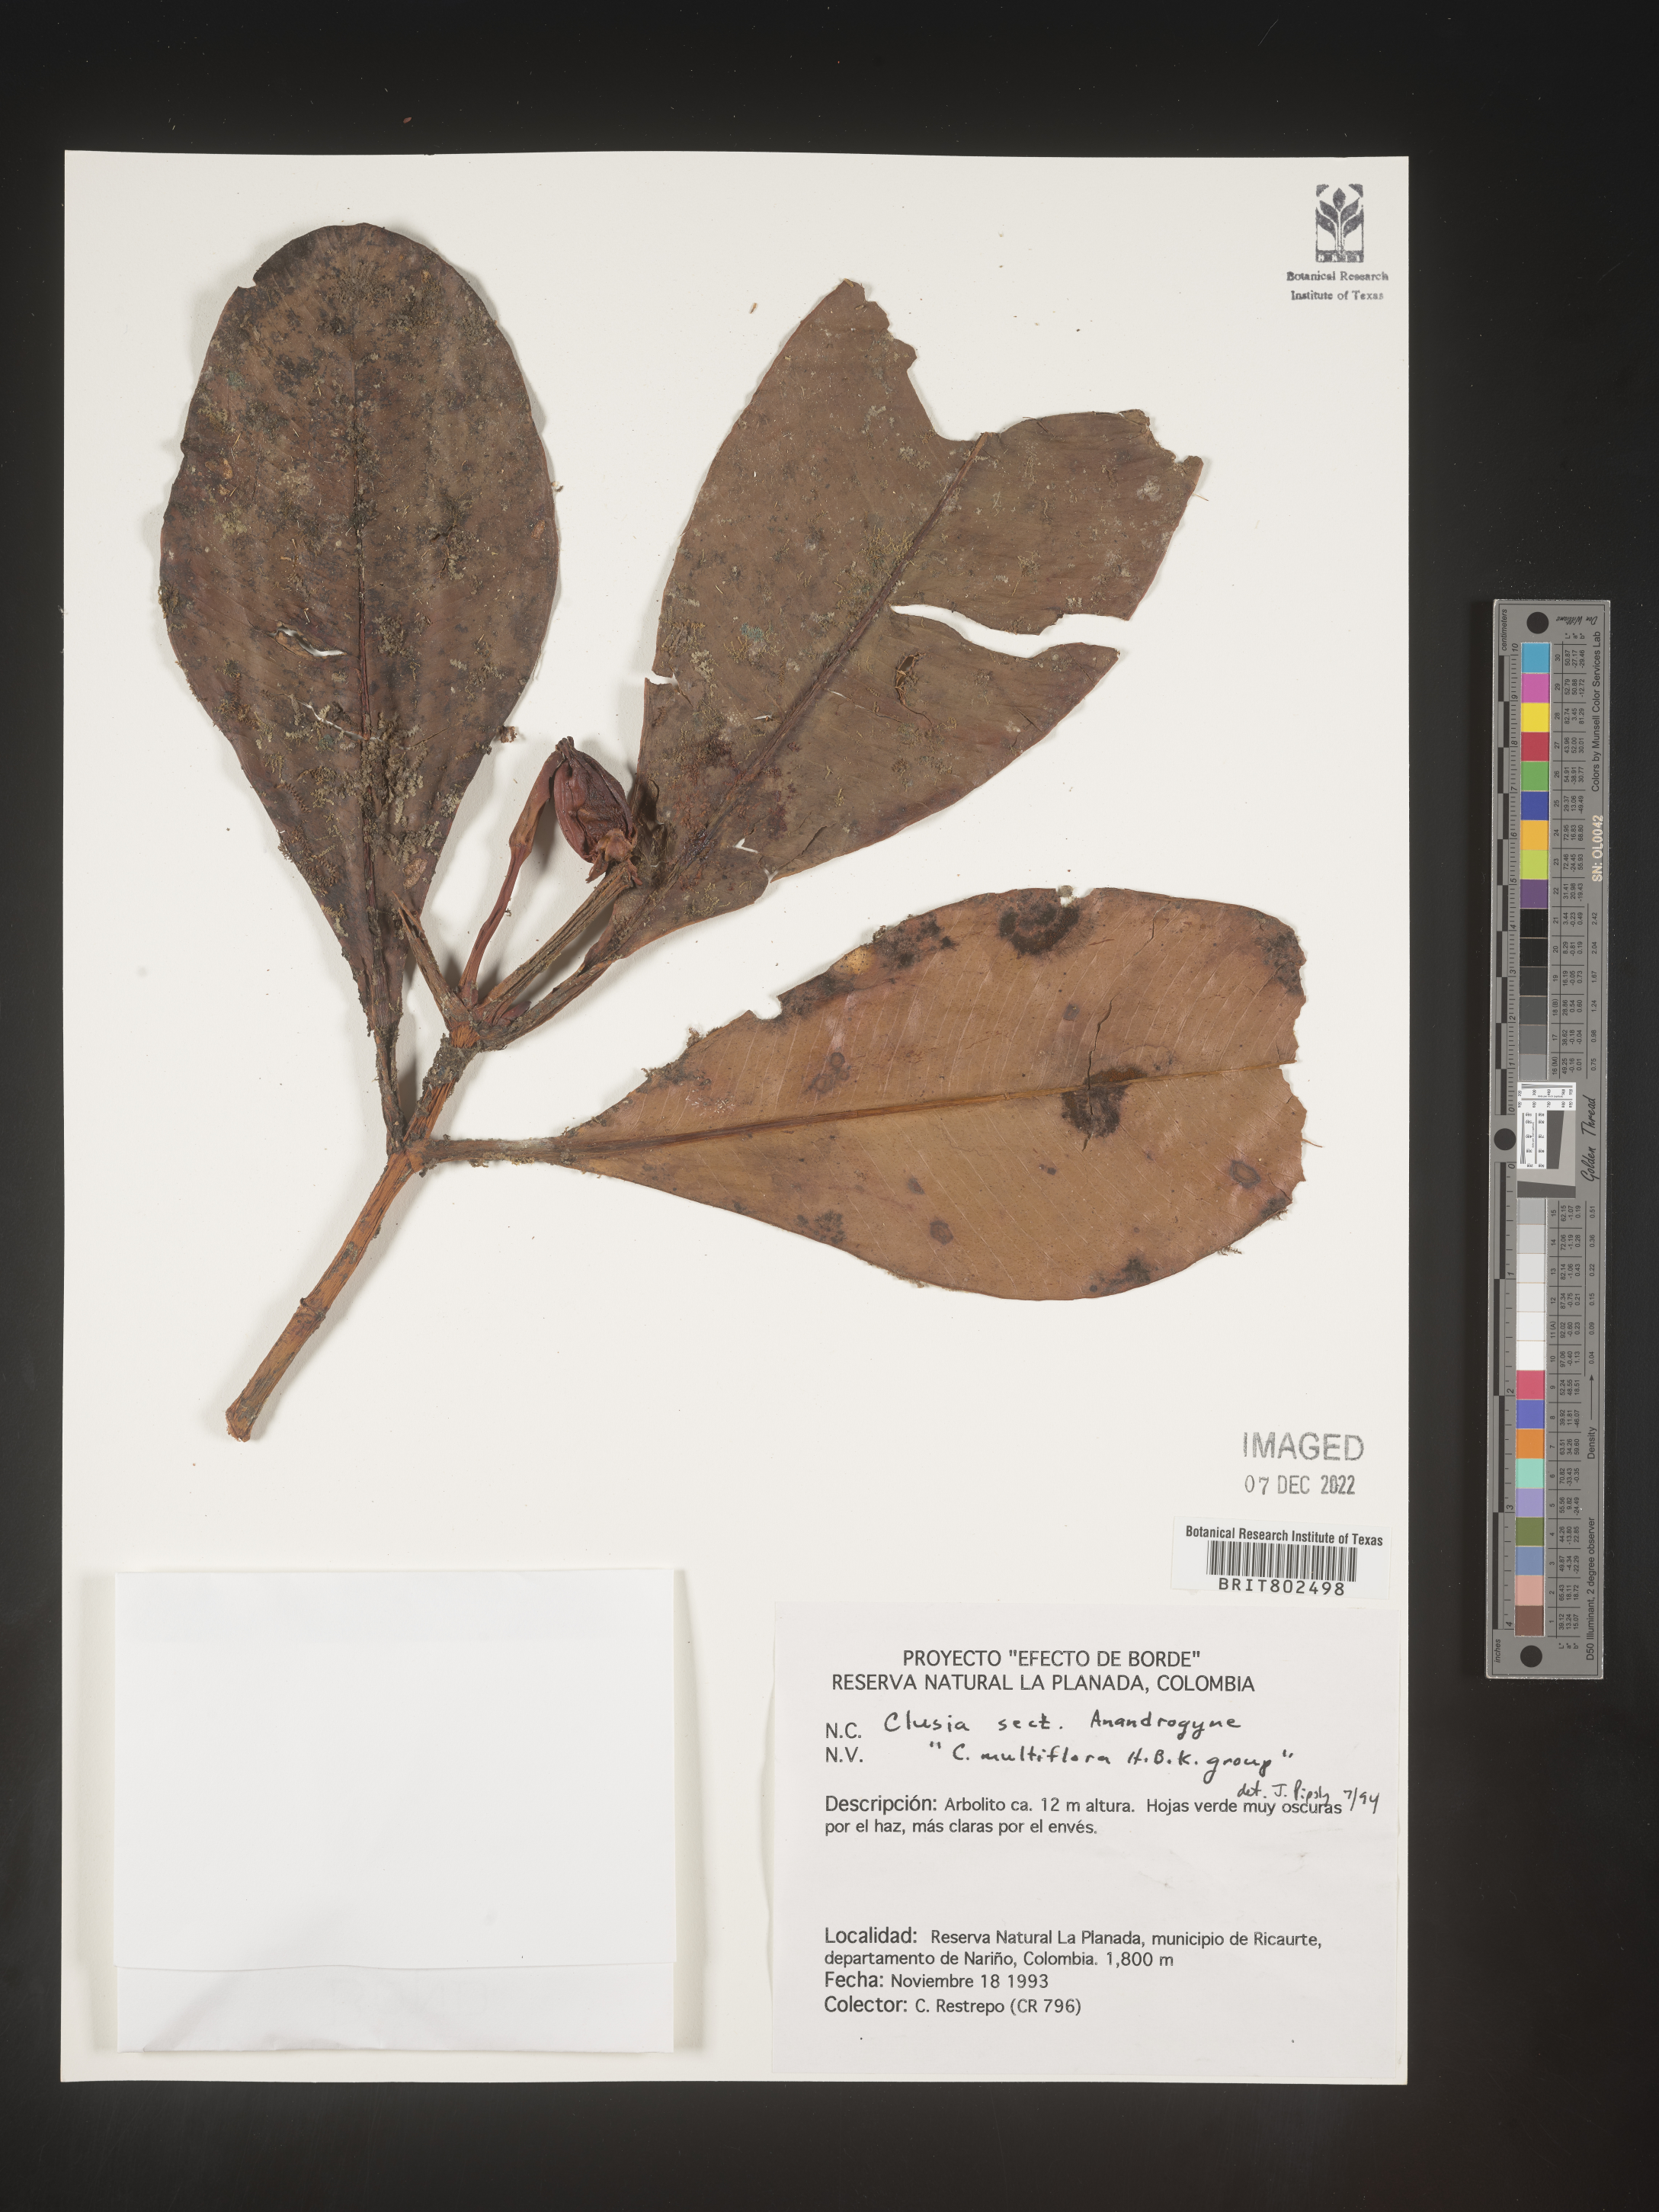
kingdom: Plantae
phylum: Tracheophyta
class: Magnoliopsida
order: Malpighiales
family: Clusiaceae
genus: Clusia
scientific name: Clusia multiflora
